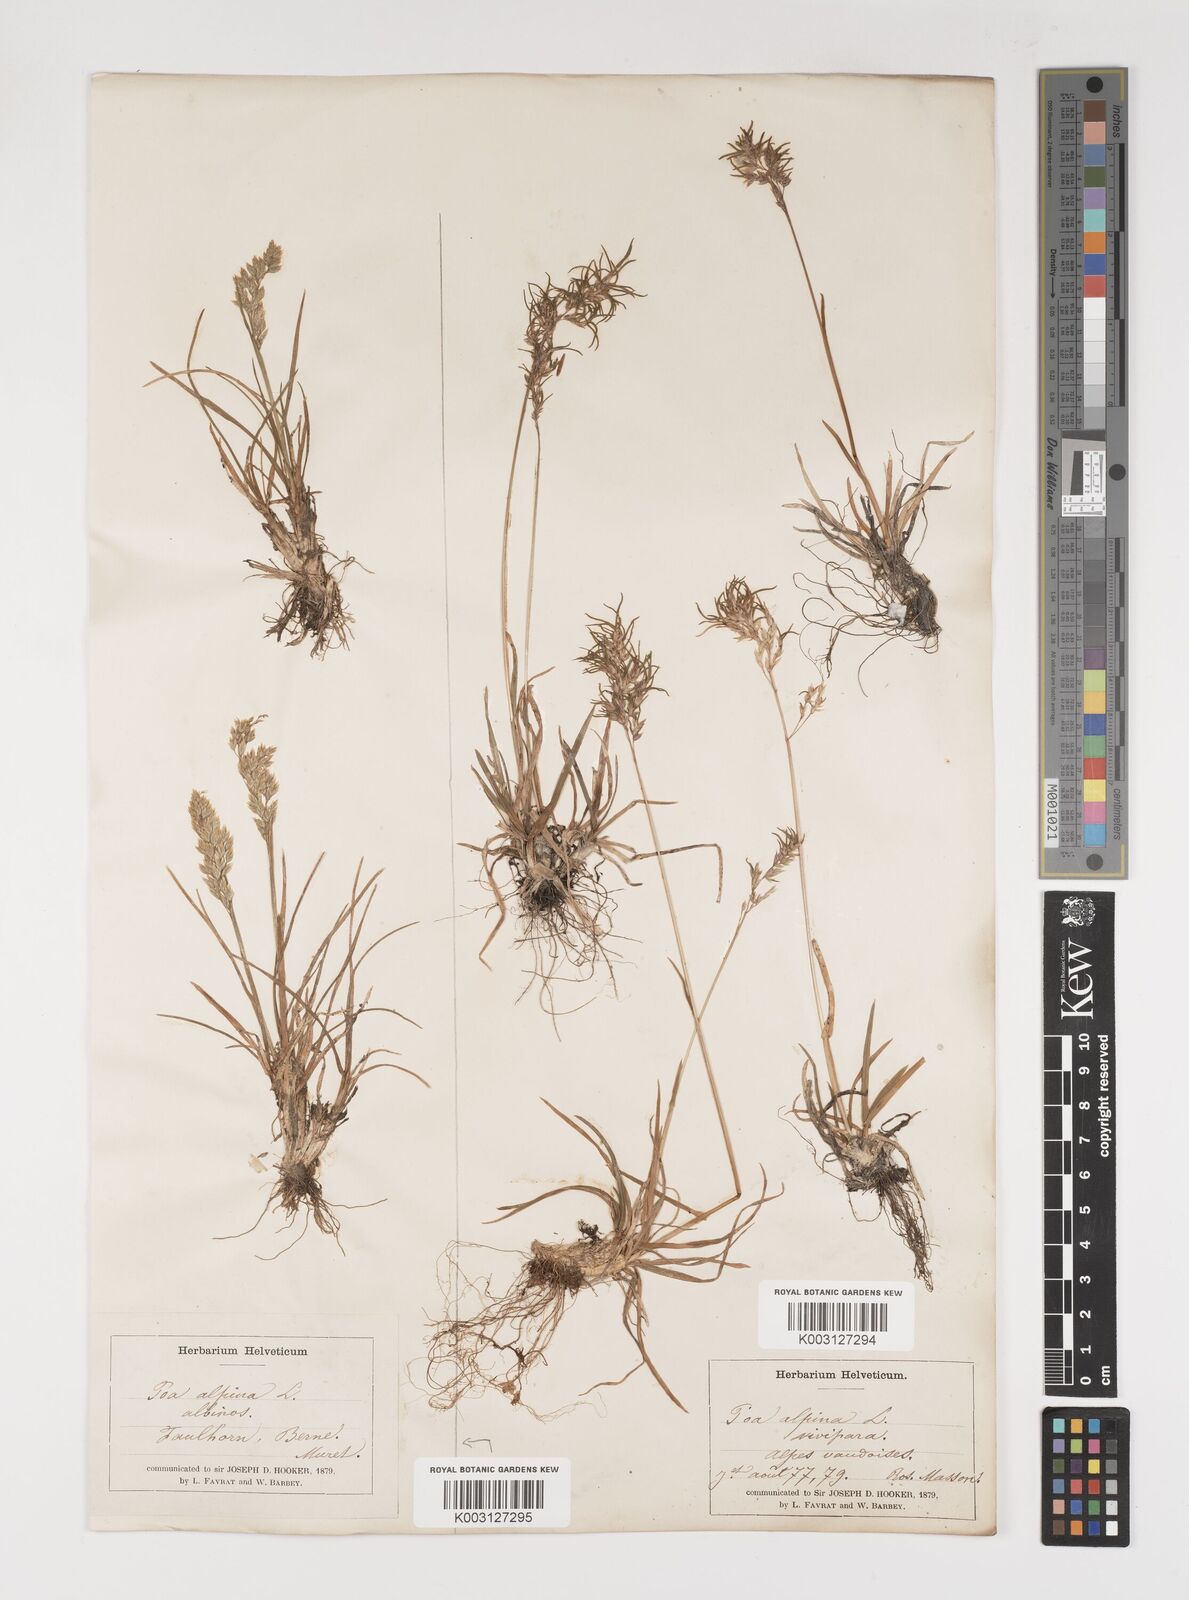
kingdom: Plantae
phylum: Tracheophyta
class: Liliopsida
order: Poales
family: Poaceae
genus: Poa
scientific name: Poa alpina
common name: Alpine bluegrass
